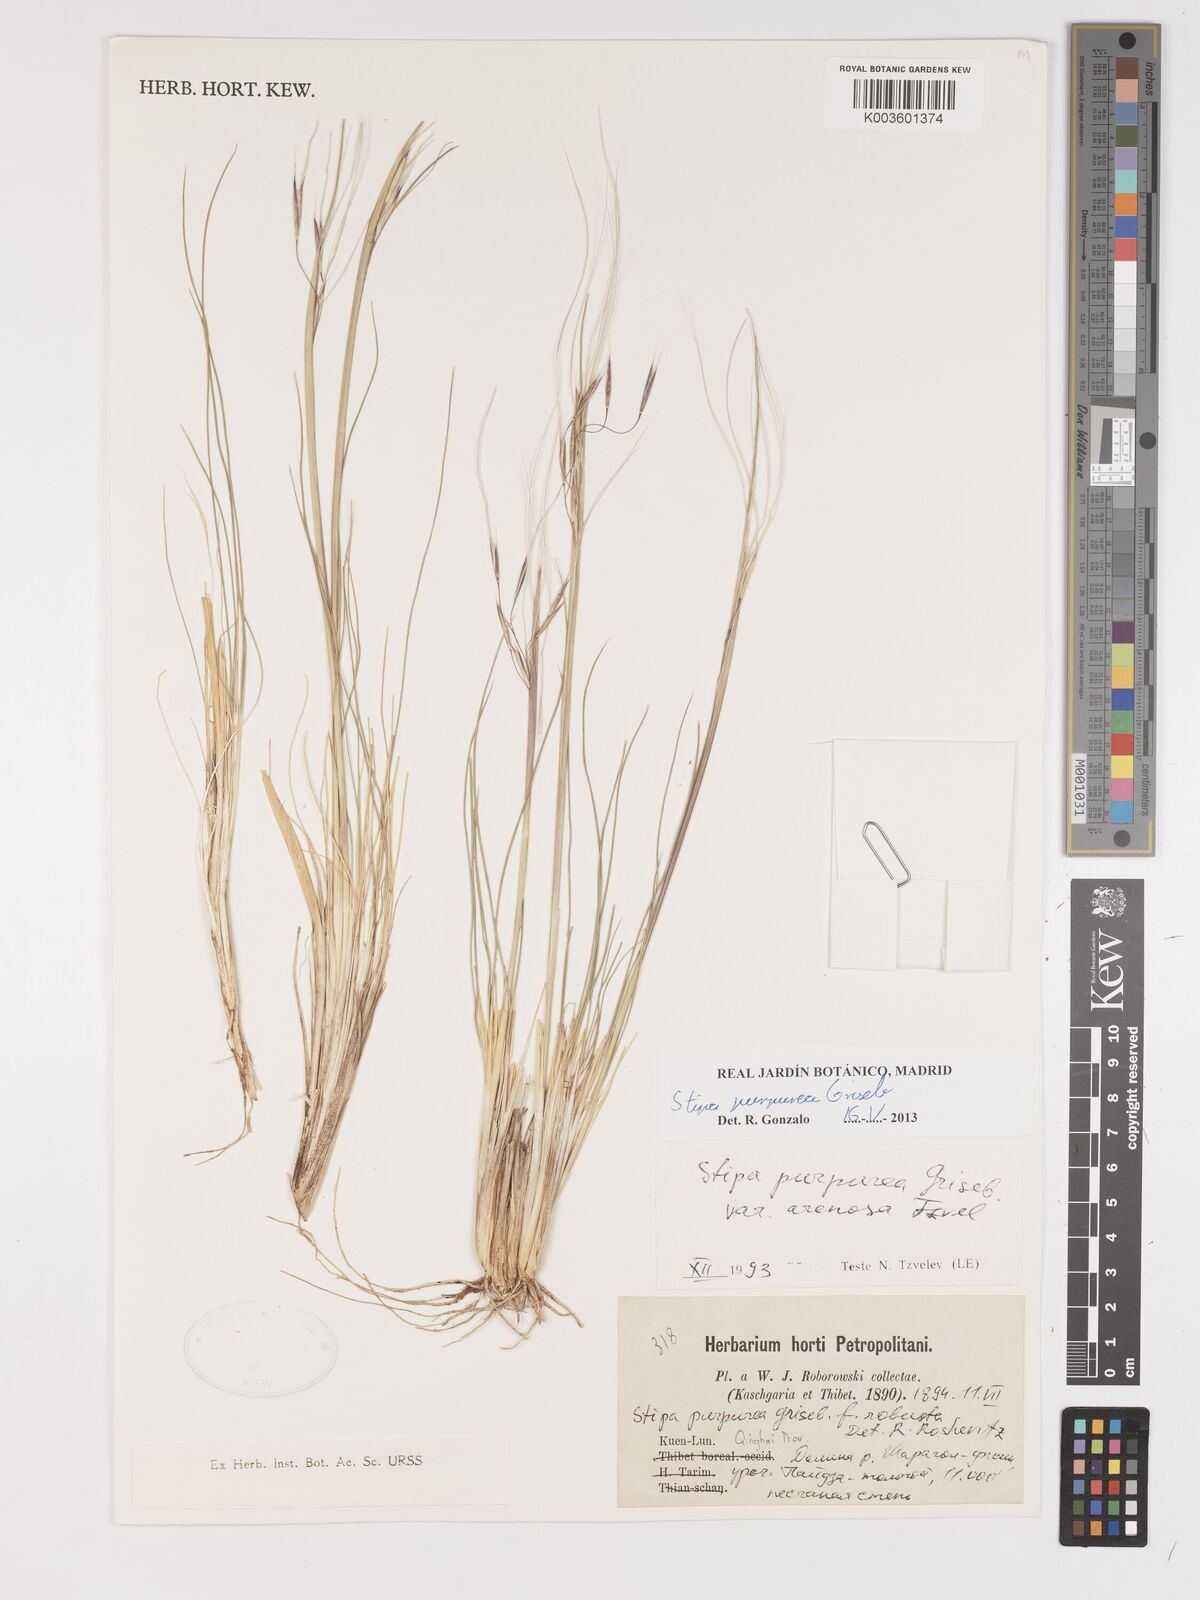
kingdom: Plantae
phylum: Tracheophyta
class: Liliopsida
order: Poales
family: Poaceae
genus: Stipa
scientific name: Stipa purpurea
